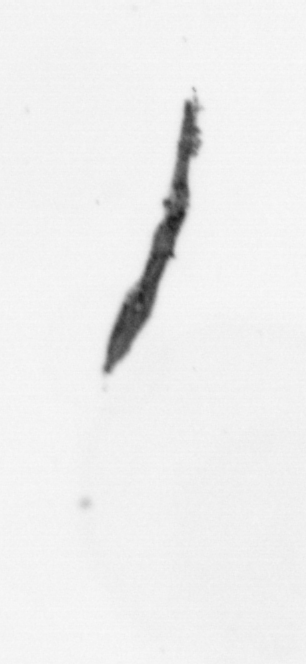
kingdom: Chromista
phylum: Ochrophyta
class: Bacillariophyceae
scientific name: Bacillariophyceae
